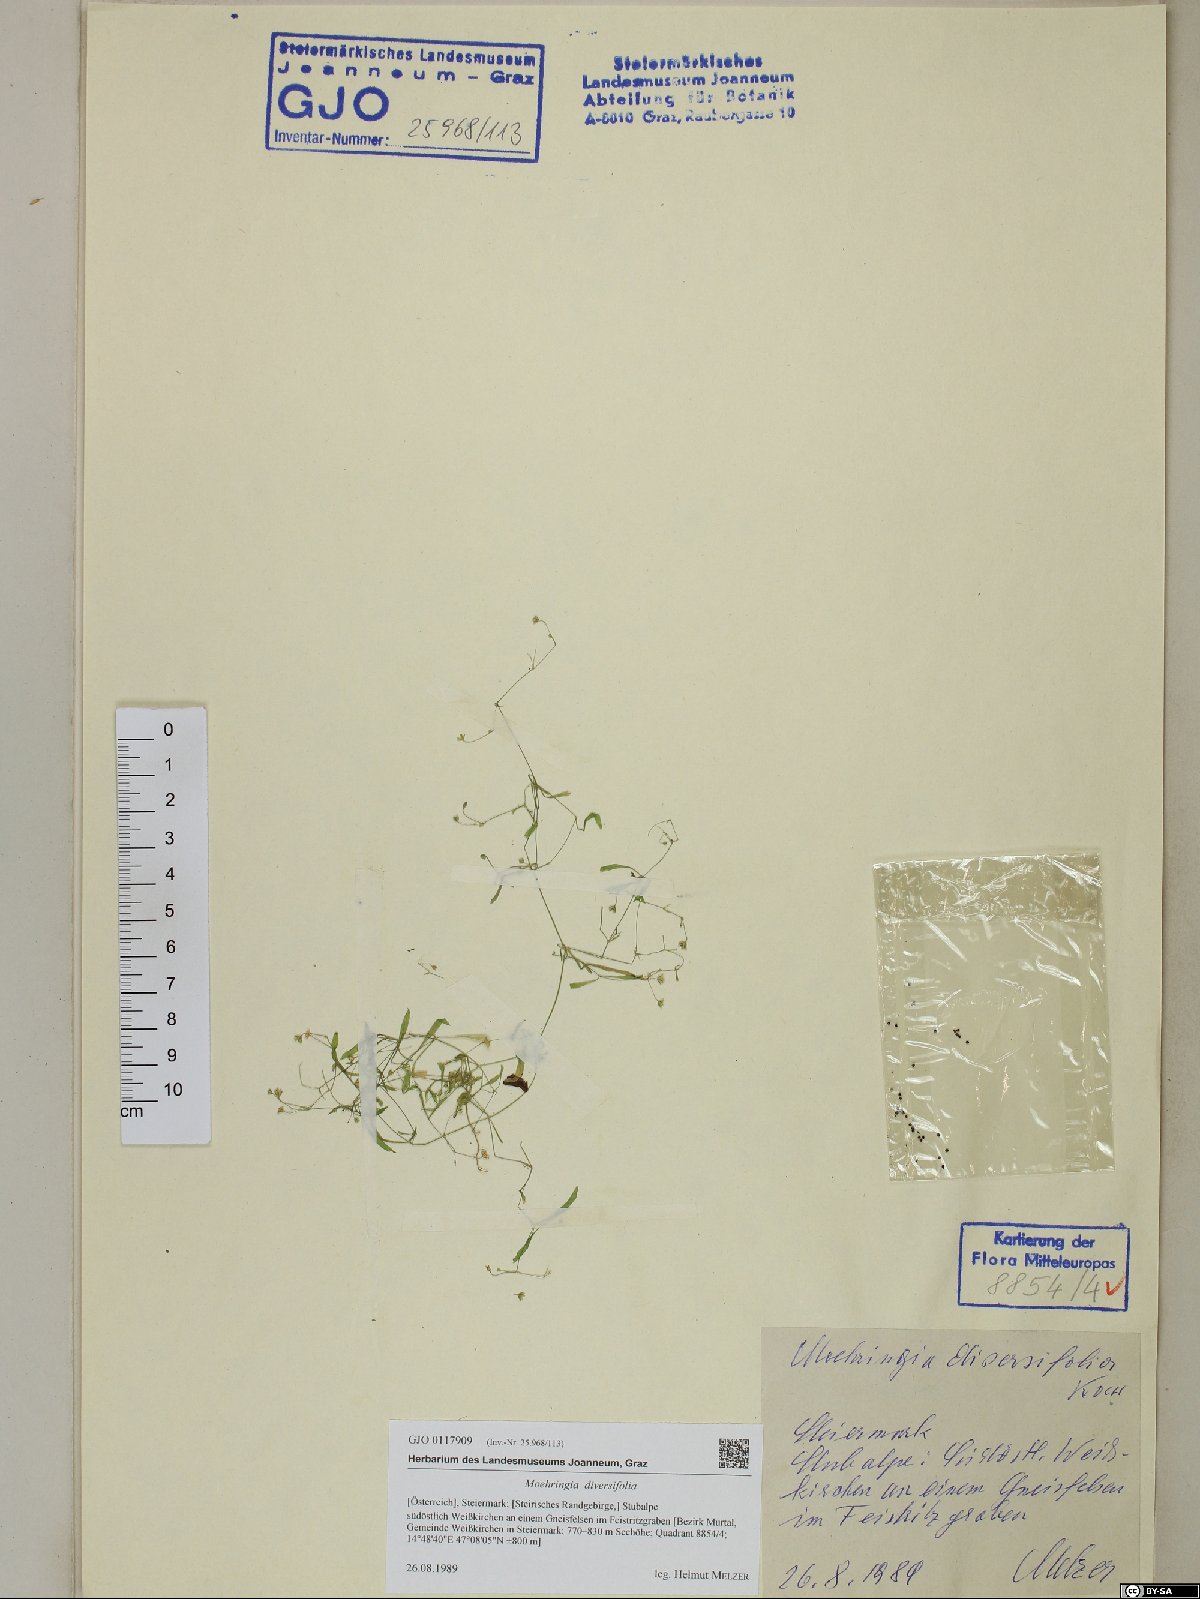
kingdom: Plantae
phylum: Tracheophyta
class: Magnoliopsida
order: Caryophyllales
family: Caryophyllaceae
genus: Moehringia
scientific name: Moehringia diversifolia
